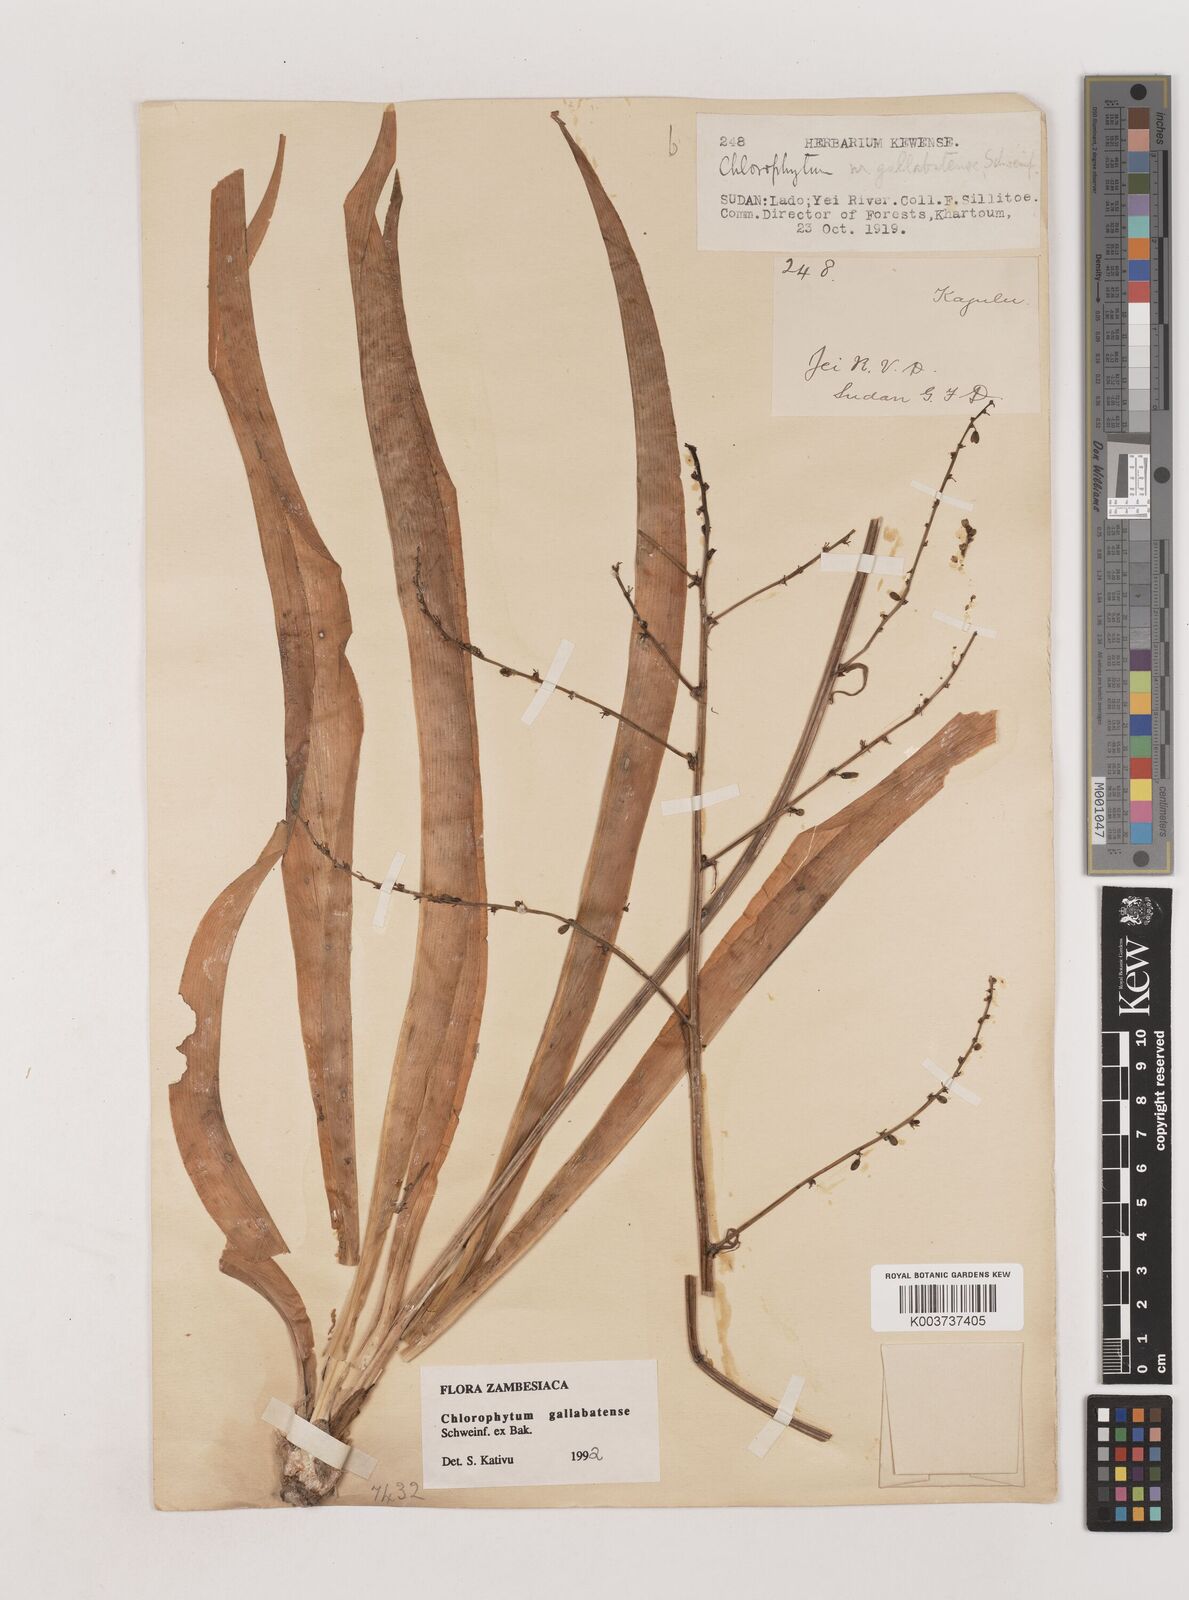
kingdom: Plantae
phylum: Tracheophyta
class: Liliopsida
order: Asparagales
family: Asparagaceae
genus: Chlorophytum
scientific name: Chlorophytum gallabatense
